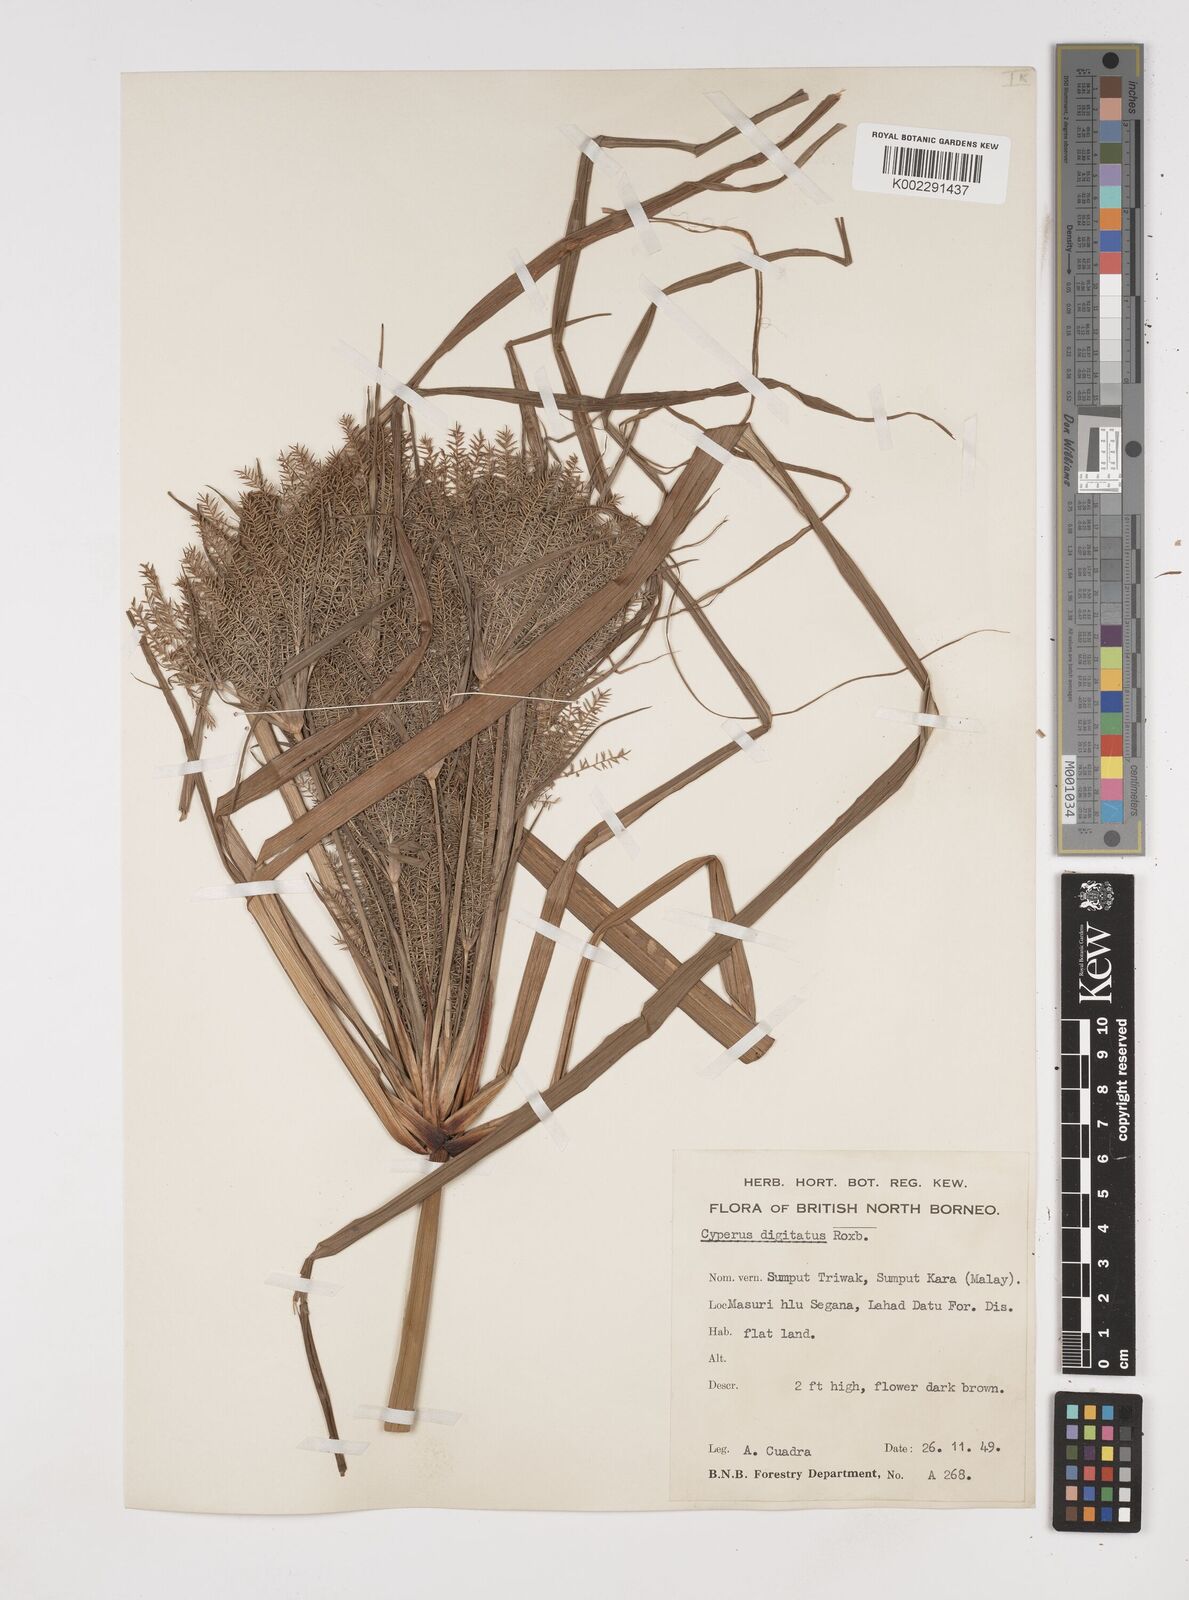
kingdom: Plantae
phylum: Tracheophyta
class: Liliopsida
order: Poales
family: Cyperaceae
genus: Cyperus
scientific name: Cyperus digitatus
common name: Finger flatsedge
